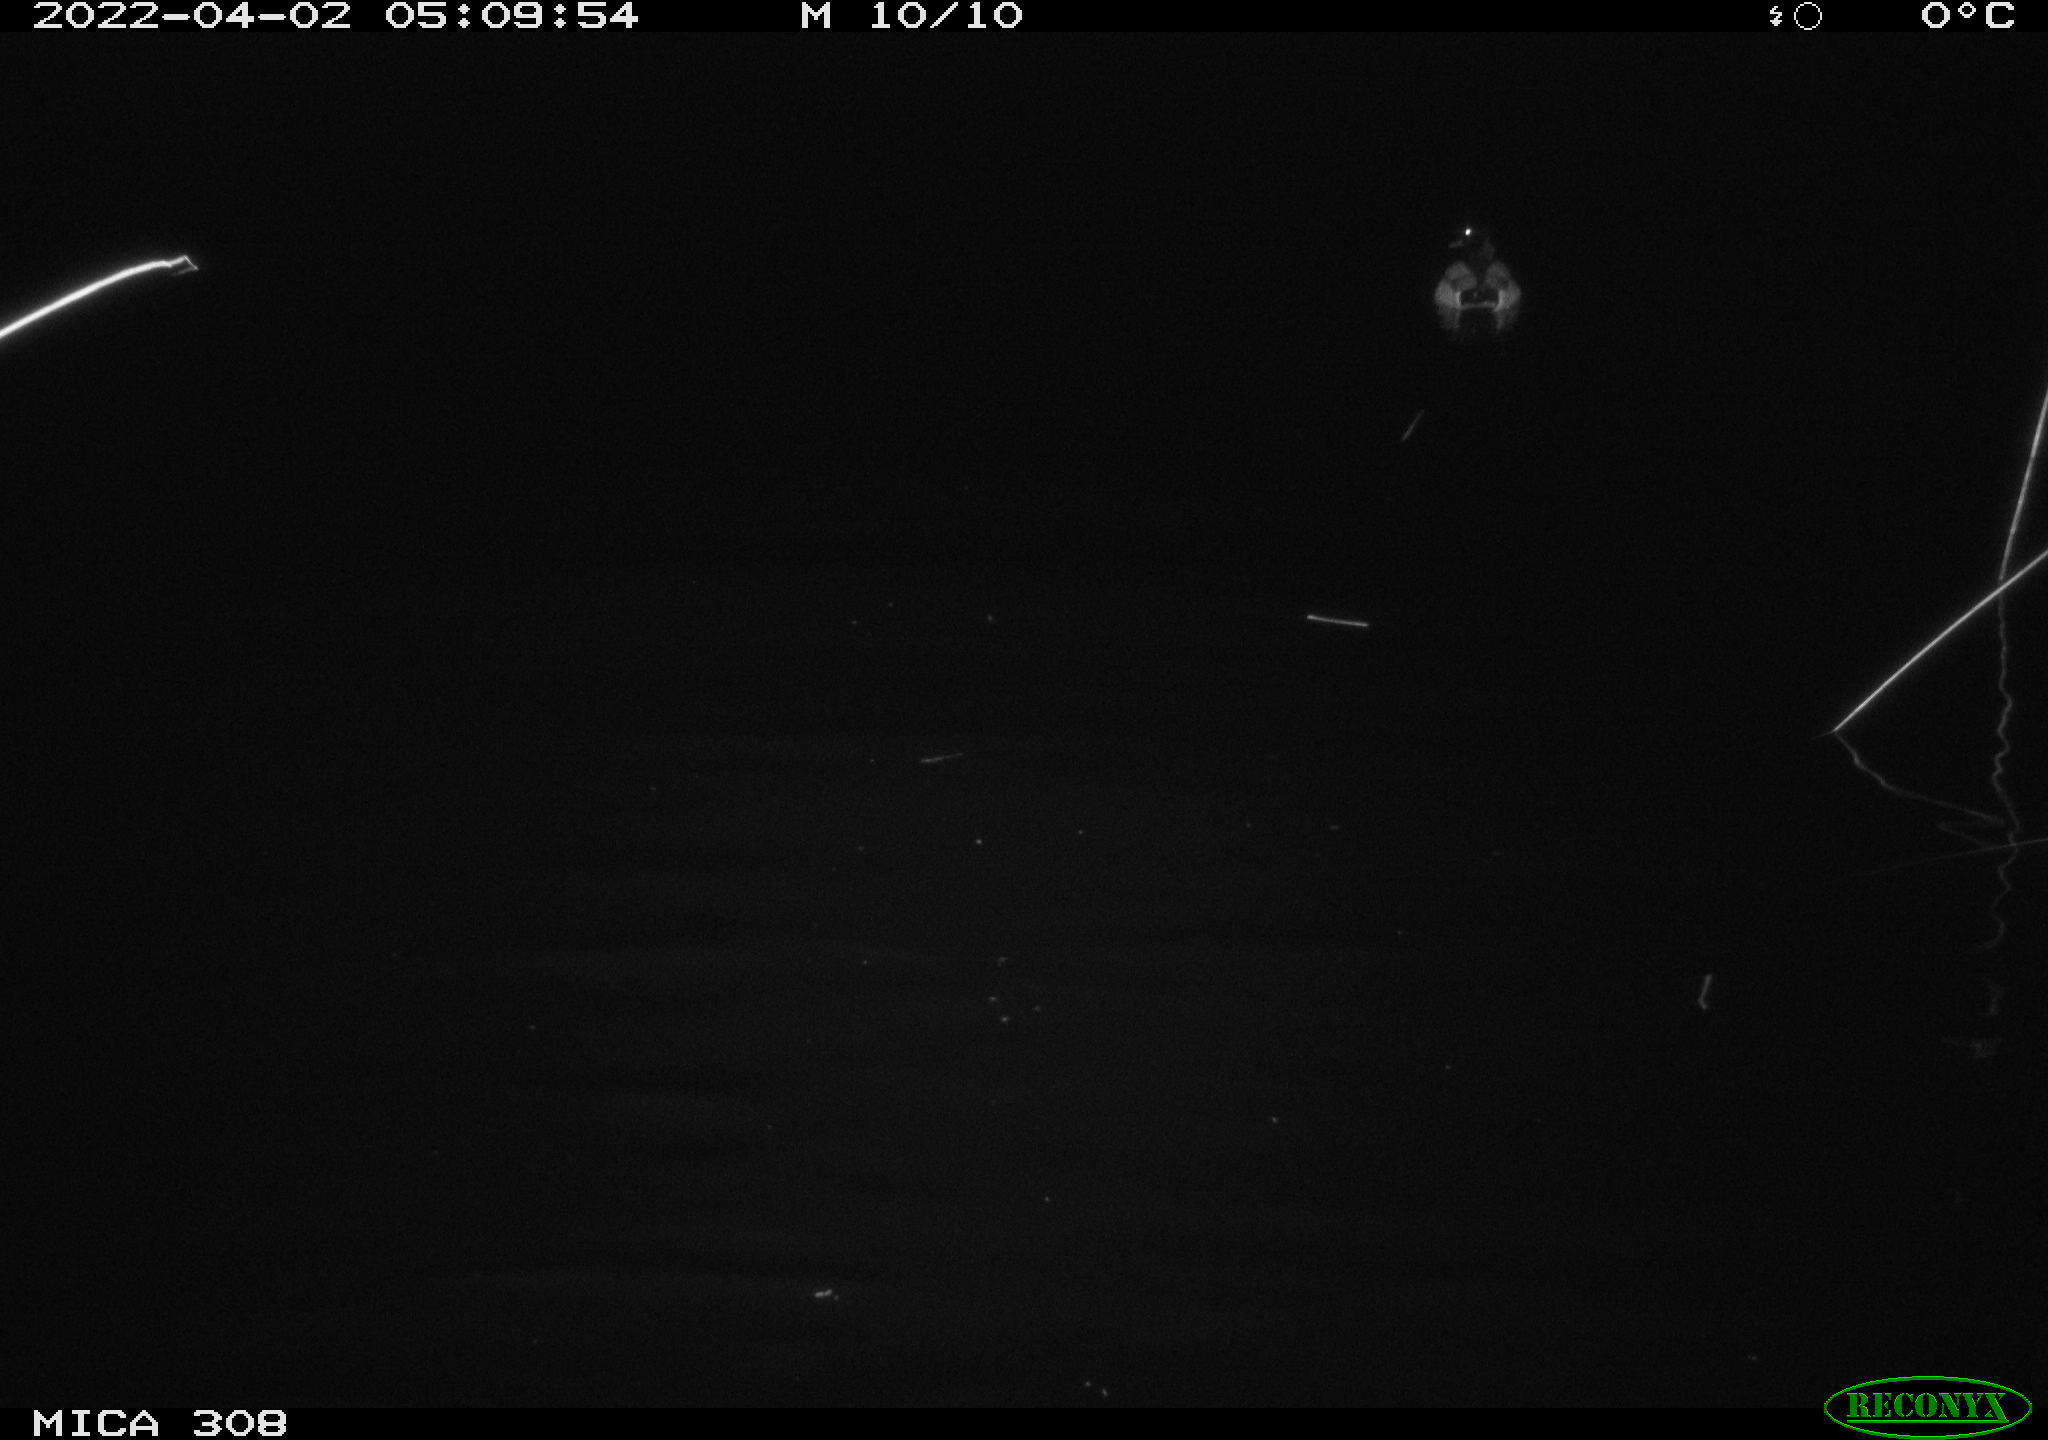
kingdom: Animalia
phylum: Chordata
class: Aves
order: Anseriformes
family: Anatidae
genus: Anas
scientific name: Anas platyrhynchos
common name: Mallard
